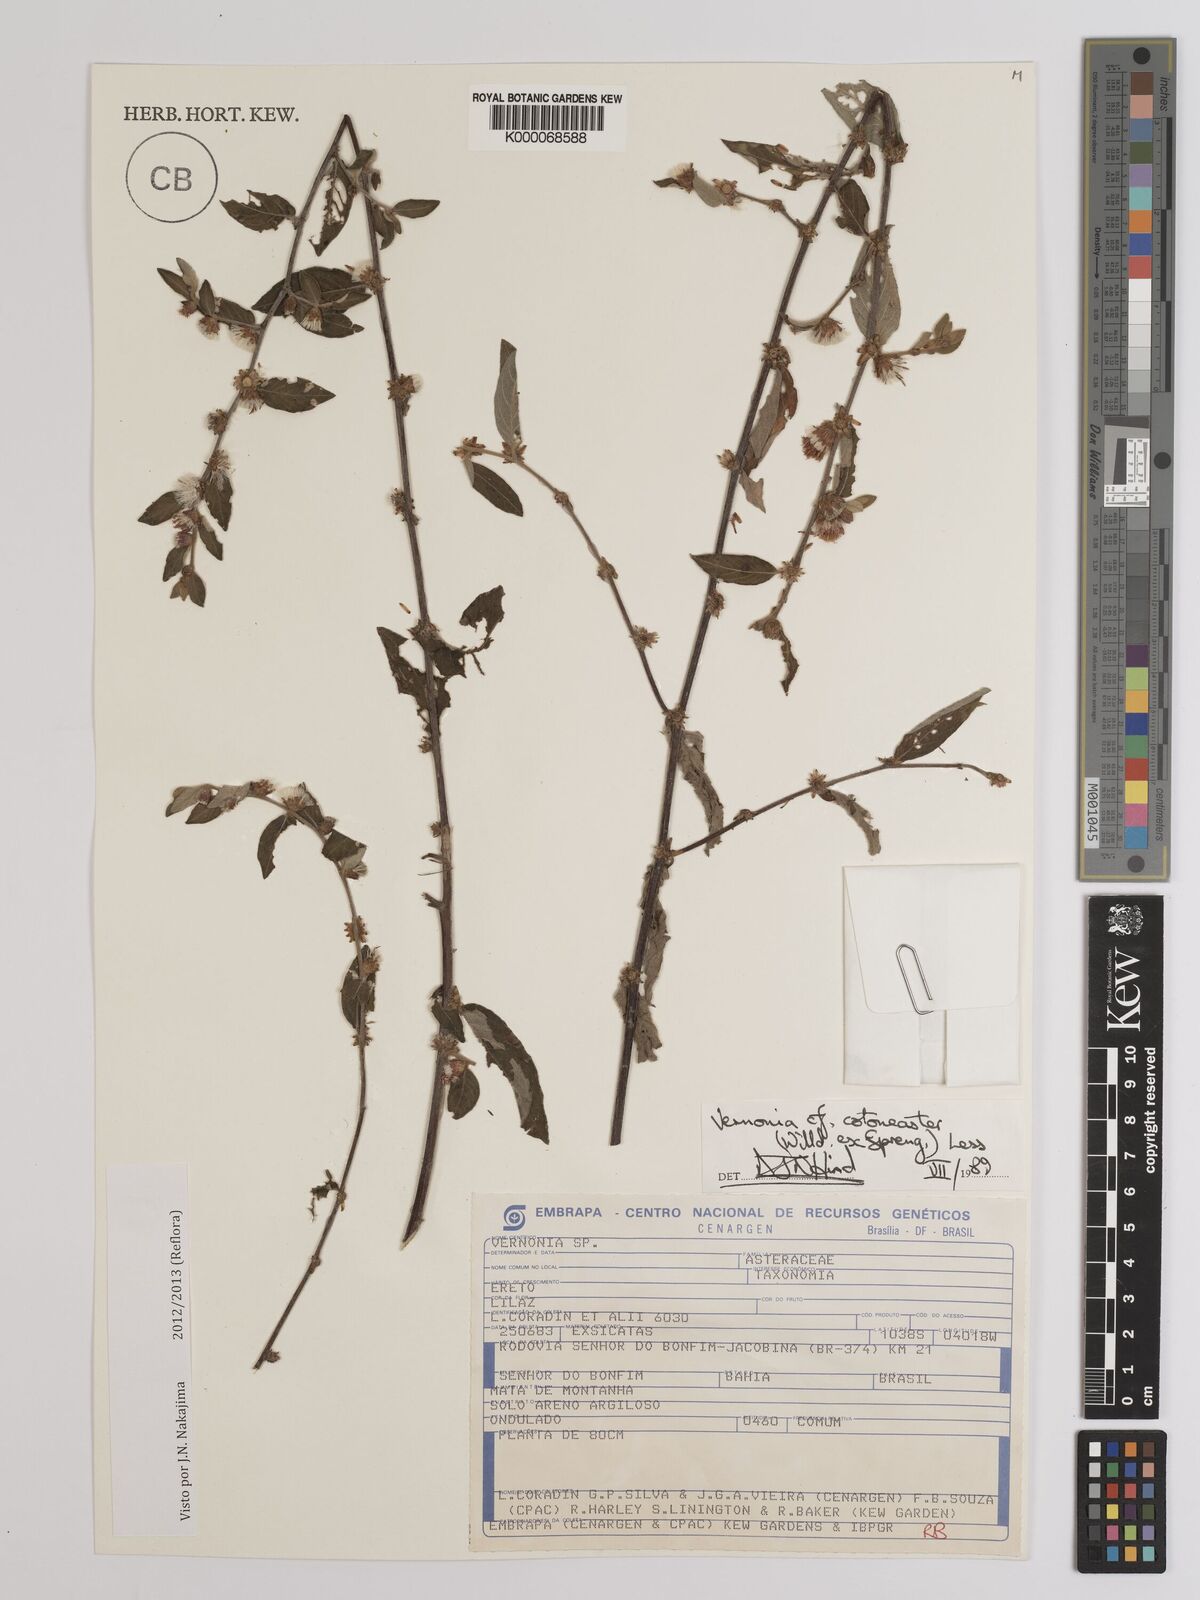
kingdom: Plantae
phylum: Tracheophyta
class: Magnoliopsida
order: Asterales
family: Asteraceae
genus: Lepidaploa
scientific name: Lepidaploa cotoneaster
